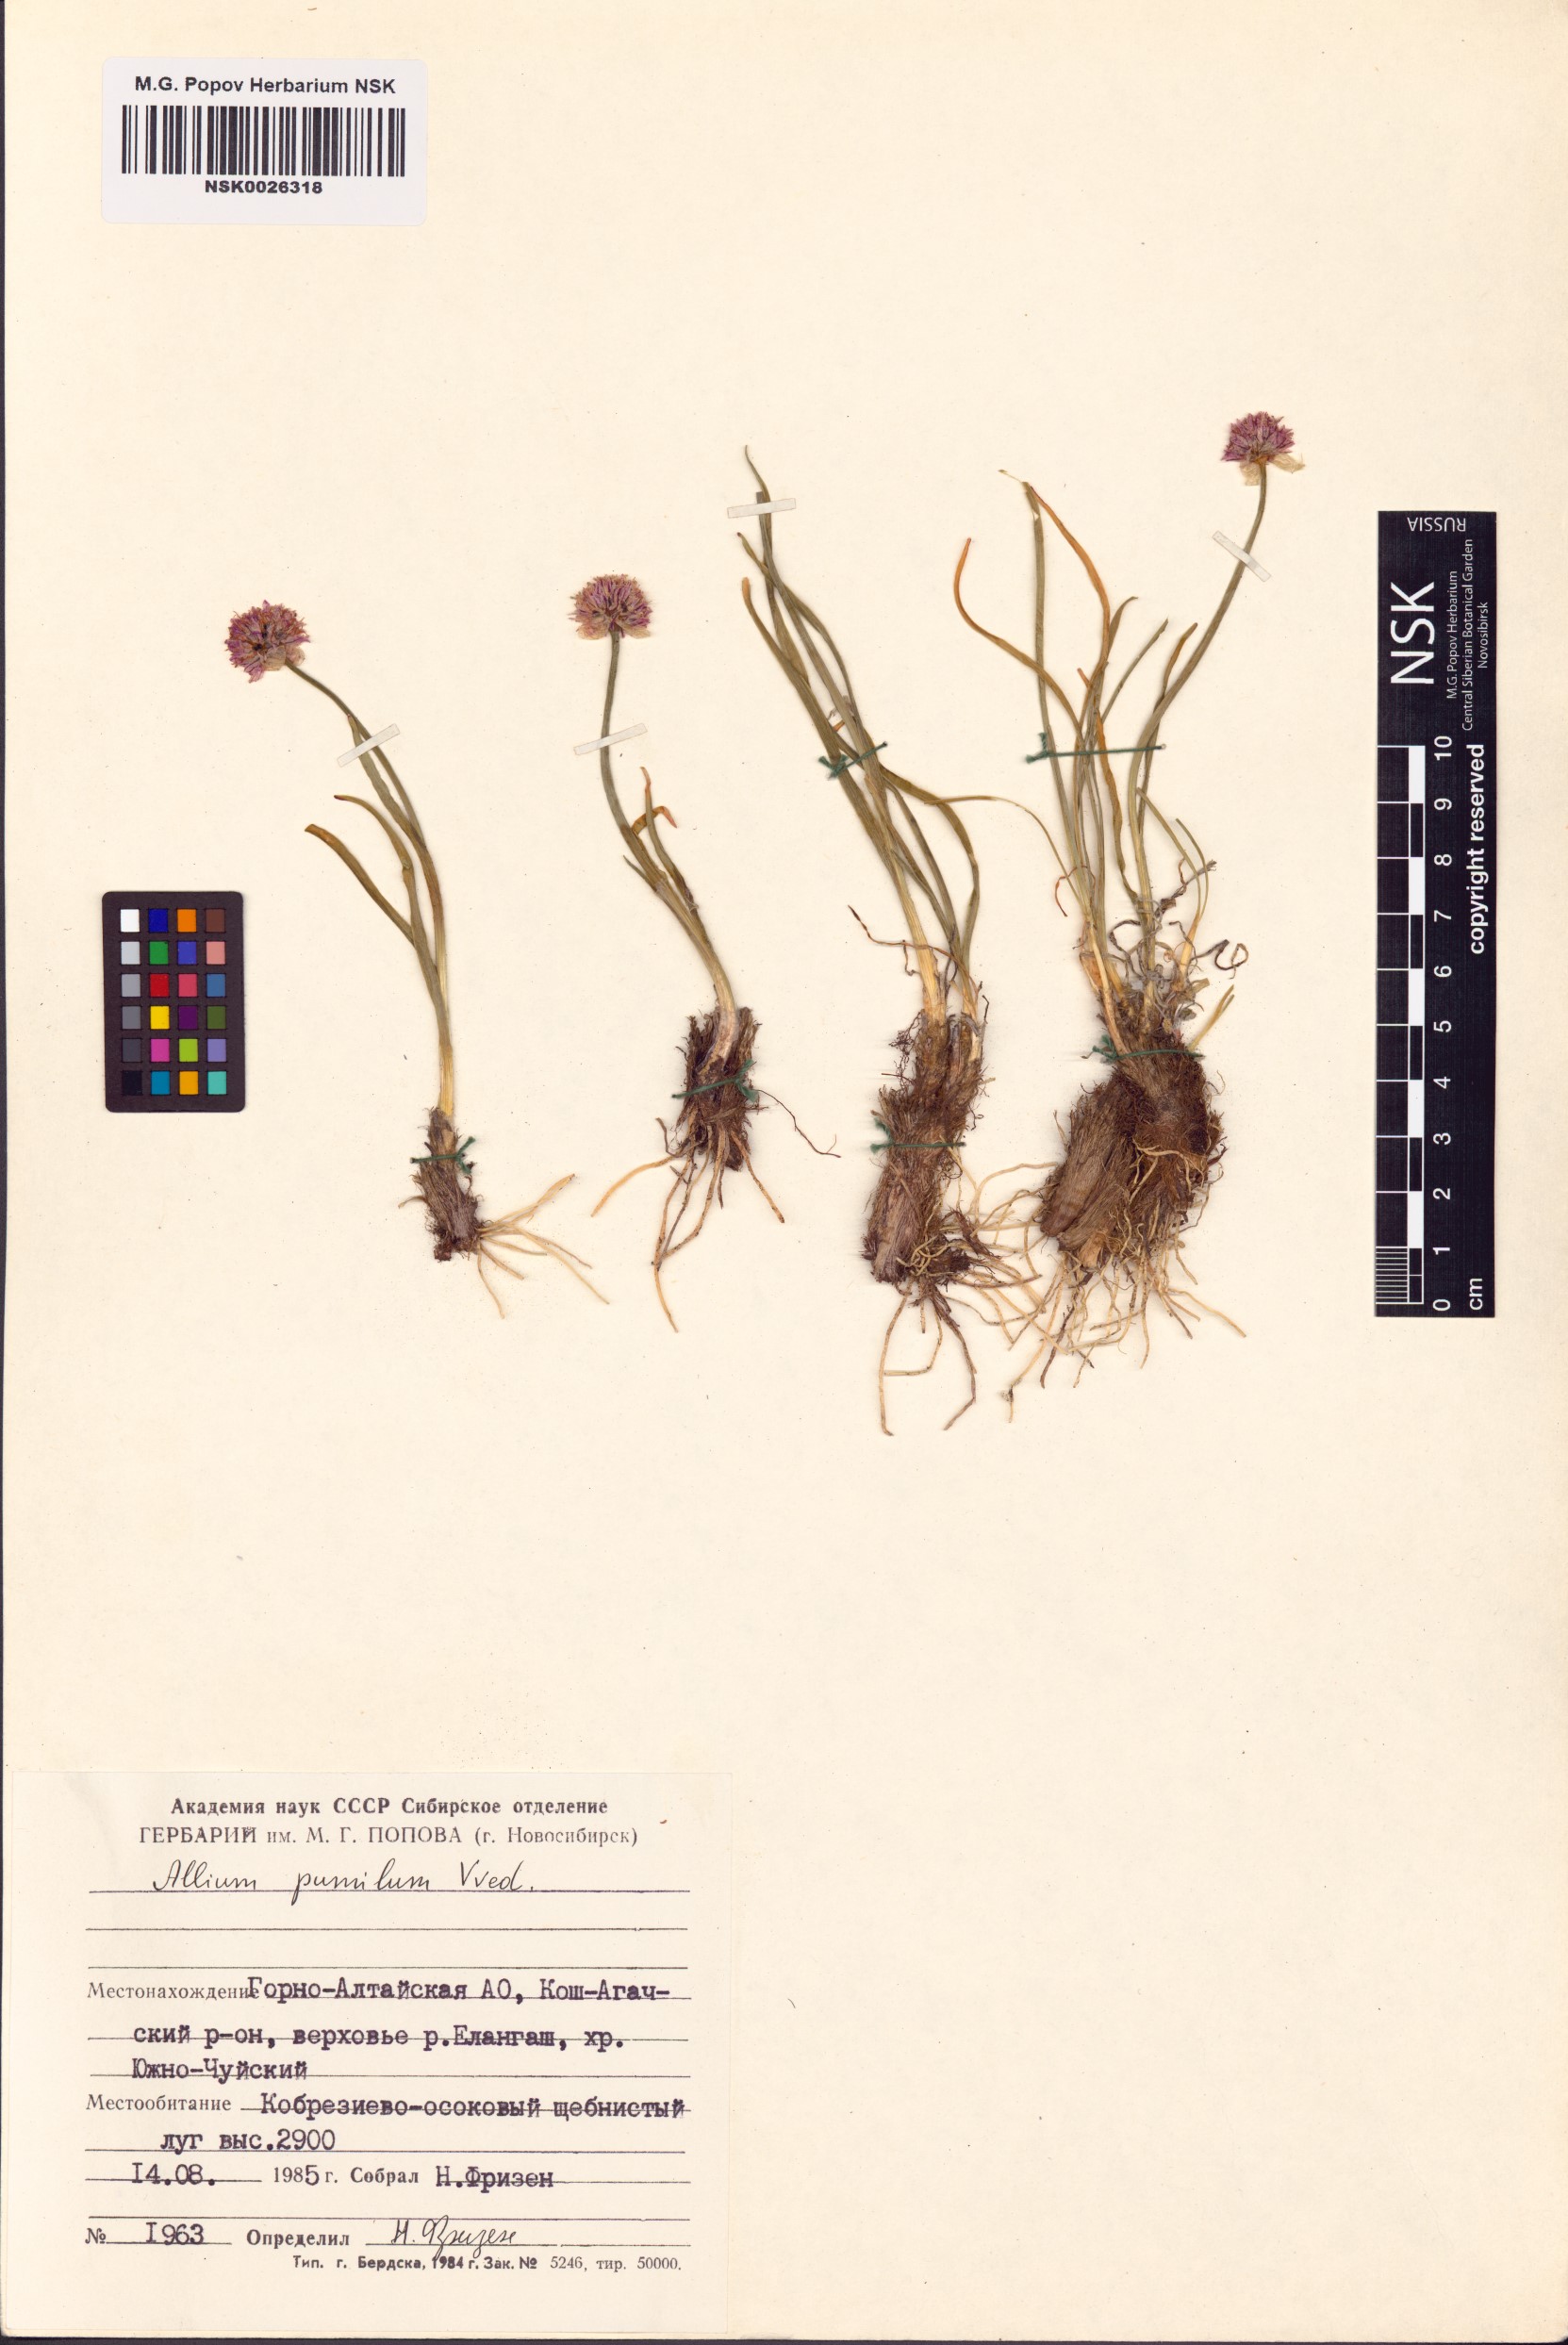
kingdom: Plantae
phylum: Tracheophyta
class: Liliopsida
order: Asparagales
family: Amaryllidaceae
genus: Allium
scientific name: Allium pumilum
